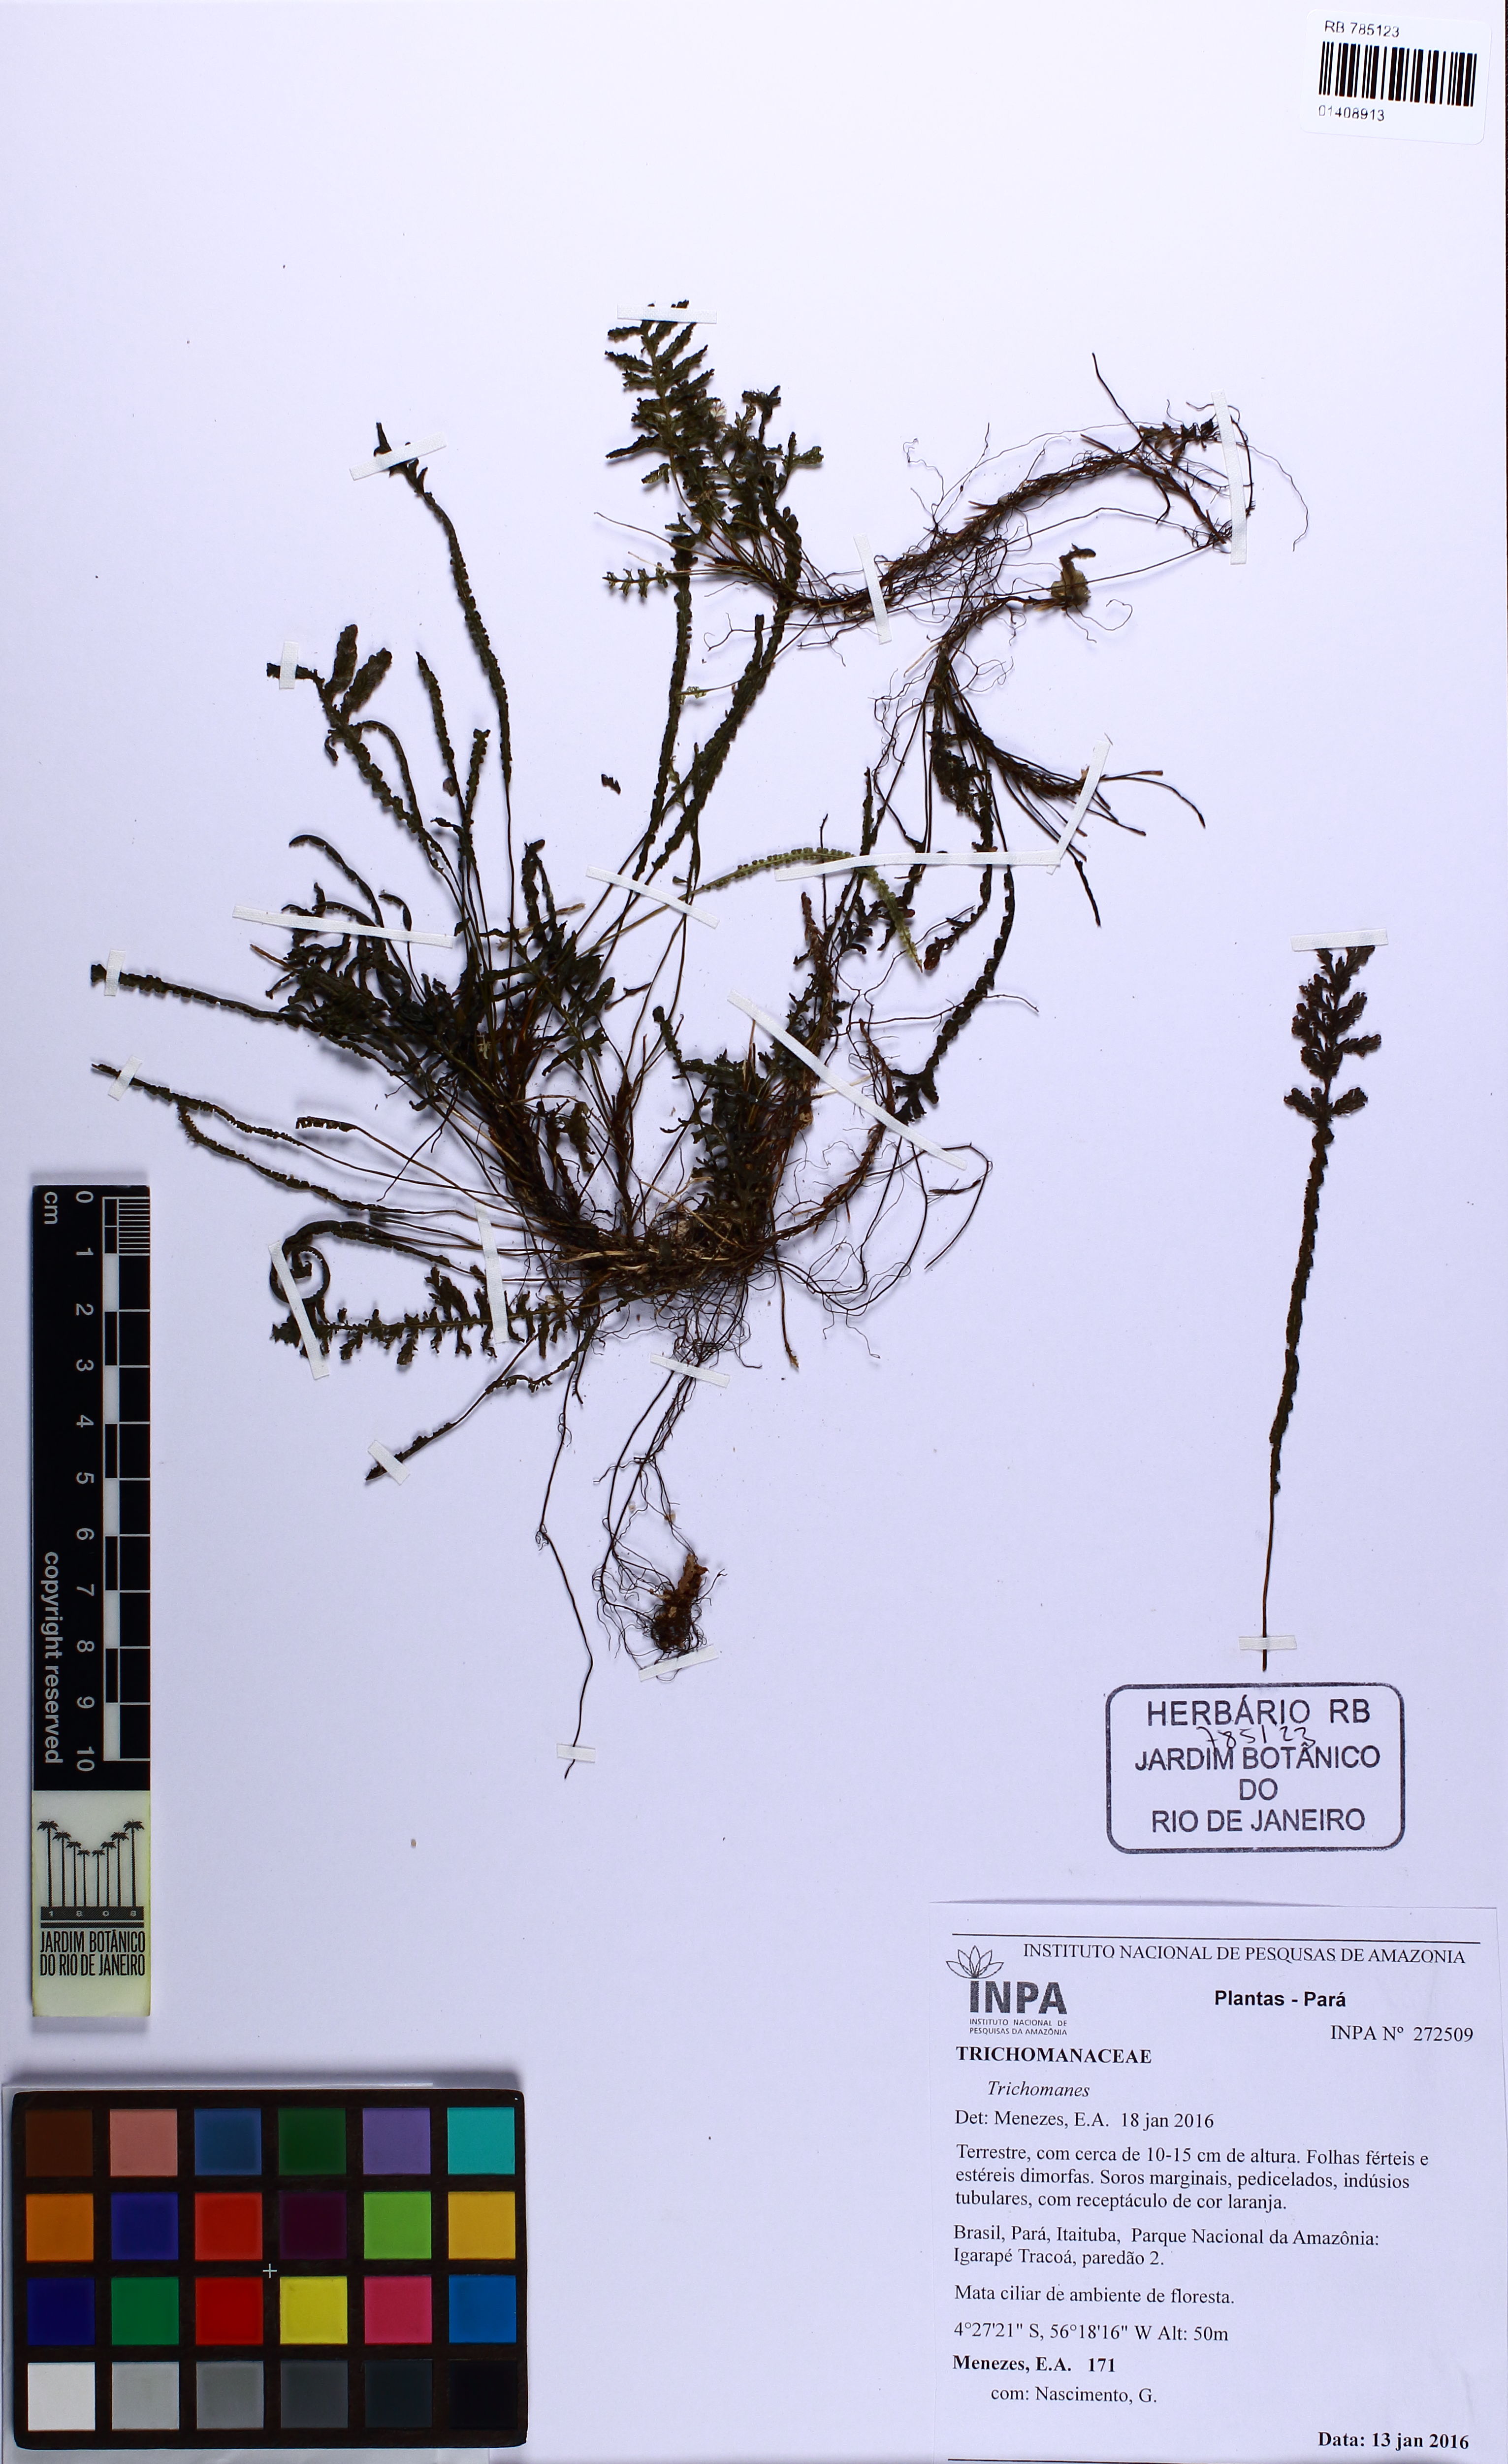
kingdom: Plantae
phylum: Tracheophyta
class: Polypodiopsida
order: Hymenophyllales
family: Hymenophyllaceae
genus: Trichomanes
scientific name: Trichomanes
